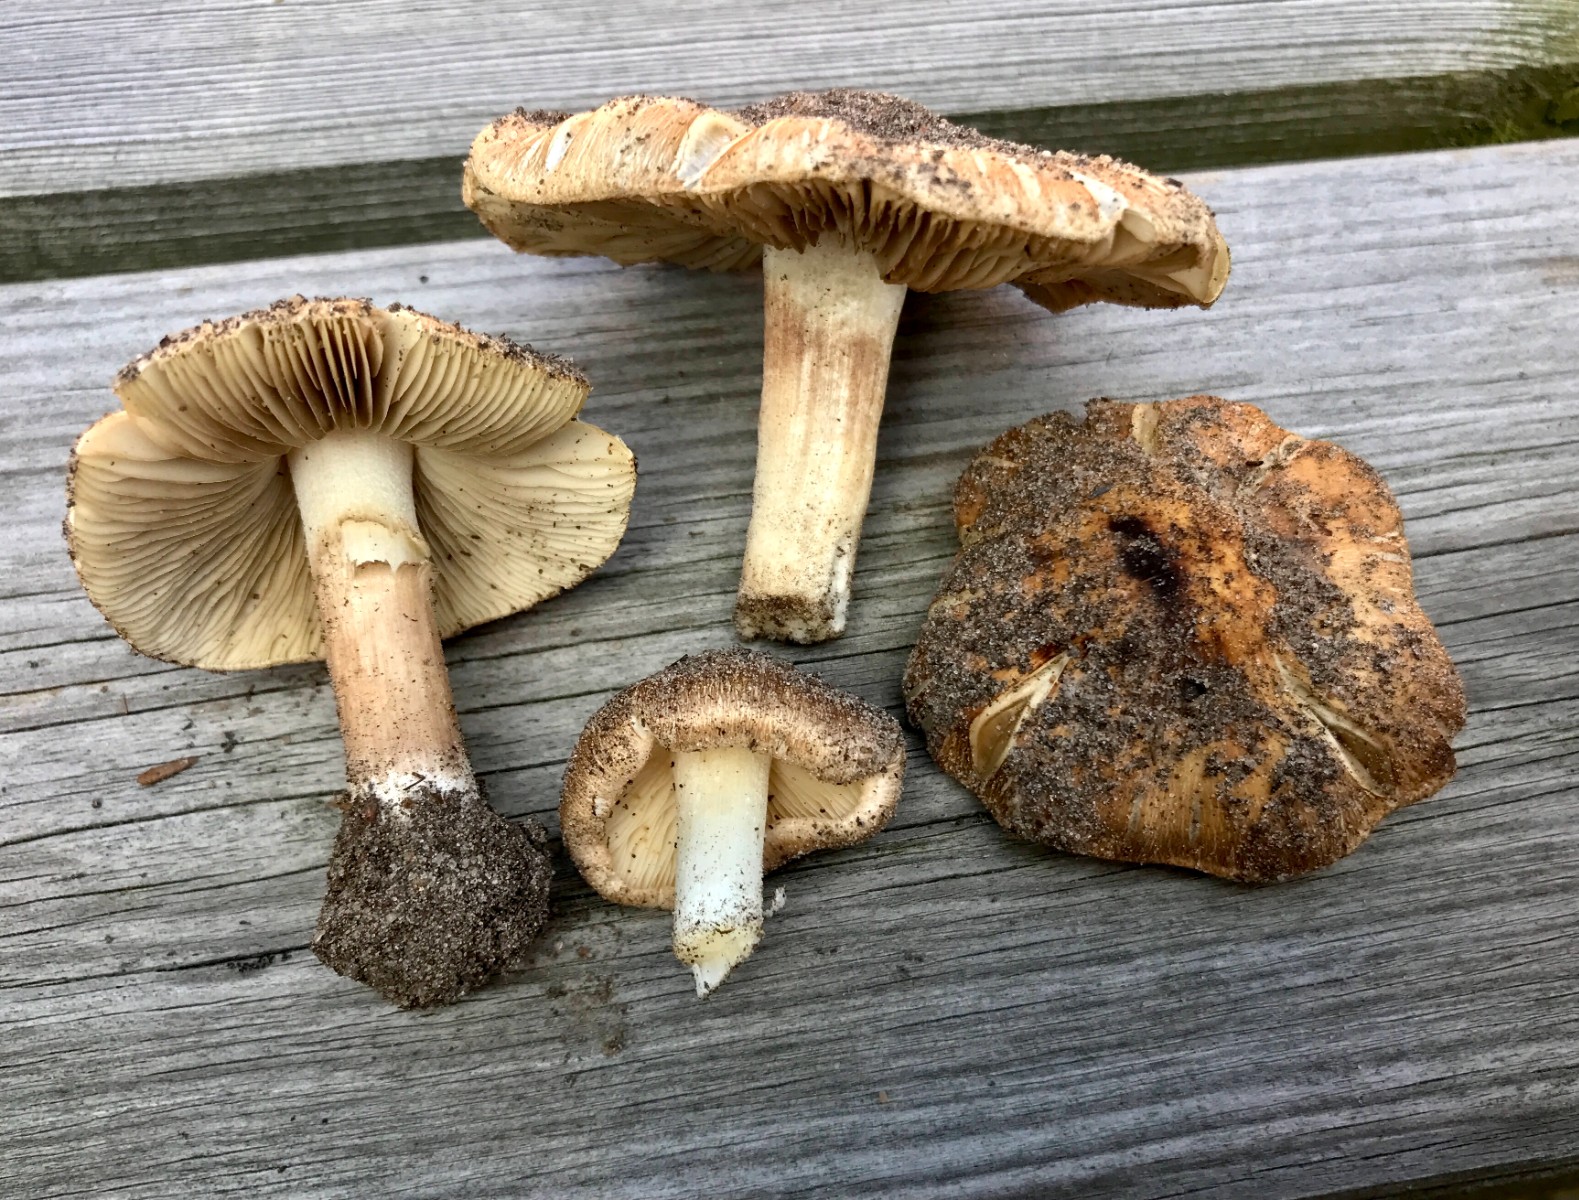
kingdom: Fungi
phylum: Basidiomycota
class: Agaricomycetes
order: Agaricales
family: Inocybaceae
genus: Inocybe
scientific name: Inocybe
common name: trævlhat
